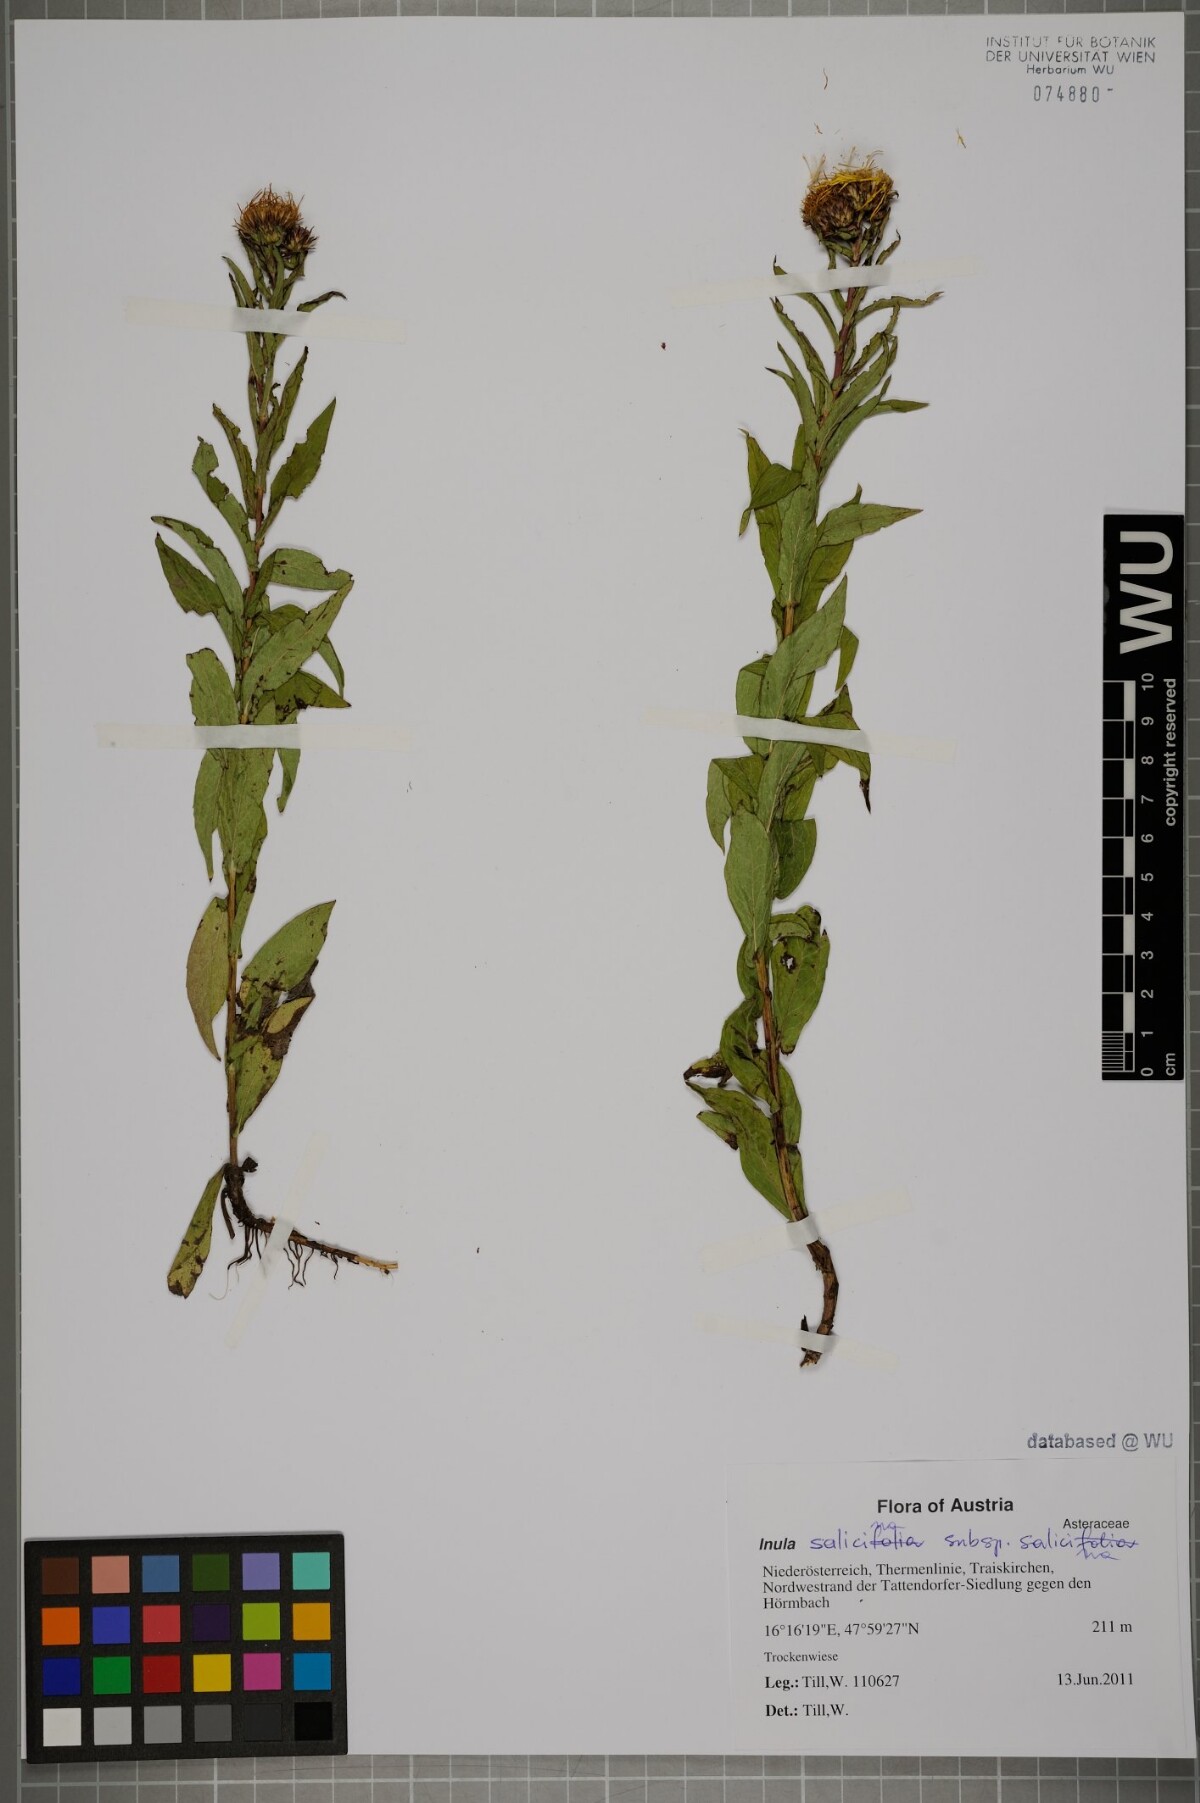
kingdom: Plantae
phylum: Tracheophyta
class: Magnoliopsida
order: Asterales
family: Asteraceae
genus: Pentanema
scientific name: Pentanema salicinum
